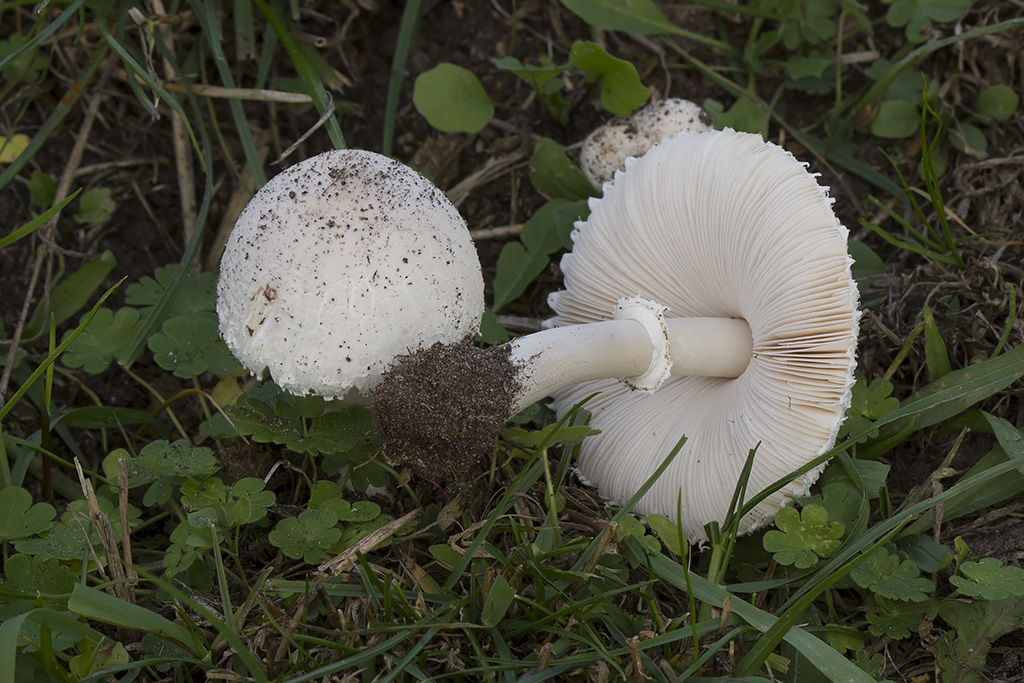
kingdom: Fungi
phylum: Basidiomycota
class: Agaricomycetes
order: Agaricales
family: Agaricaceae
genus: Leucoagaricus
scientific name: Leucoagaricus leucothites
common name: rosabladet silkehat
